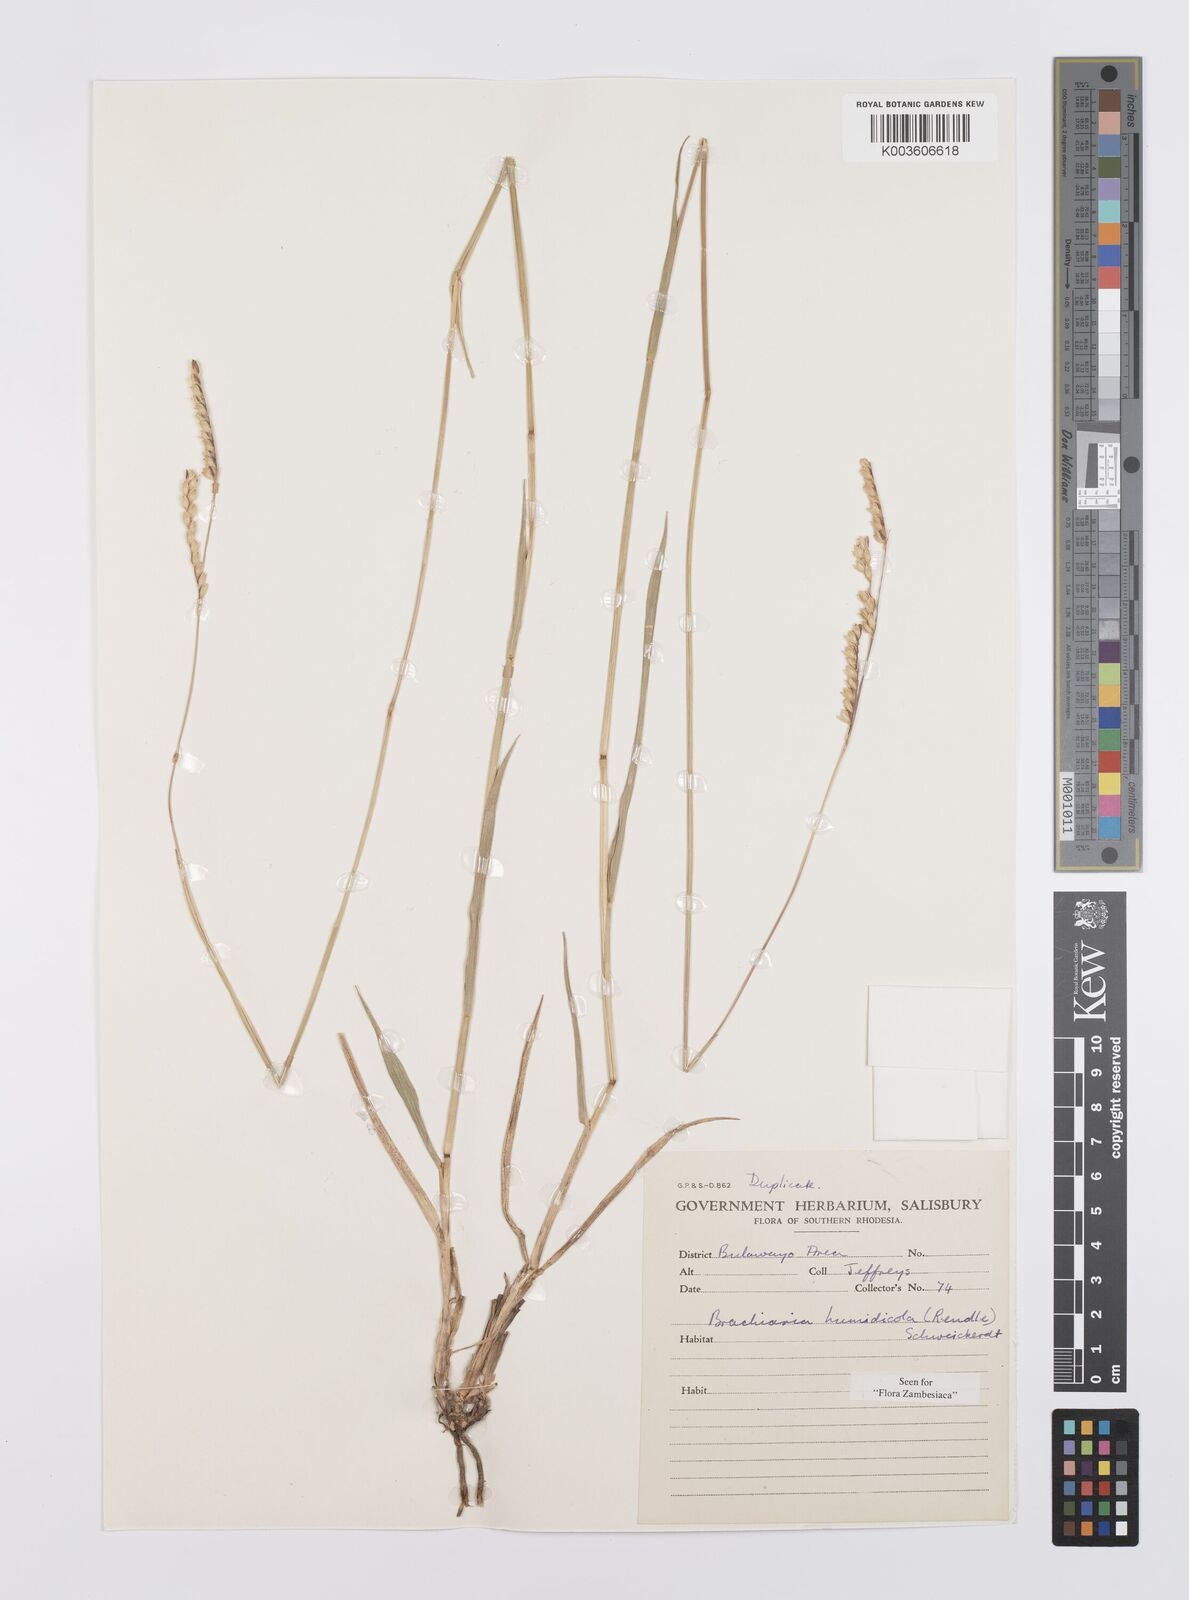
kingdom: Plantae
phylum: Tracheophyta
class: Liliopsida
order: Poales
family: Poaceae
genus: Urochloa
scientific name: Urochloa dictyoneura
